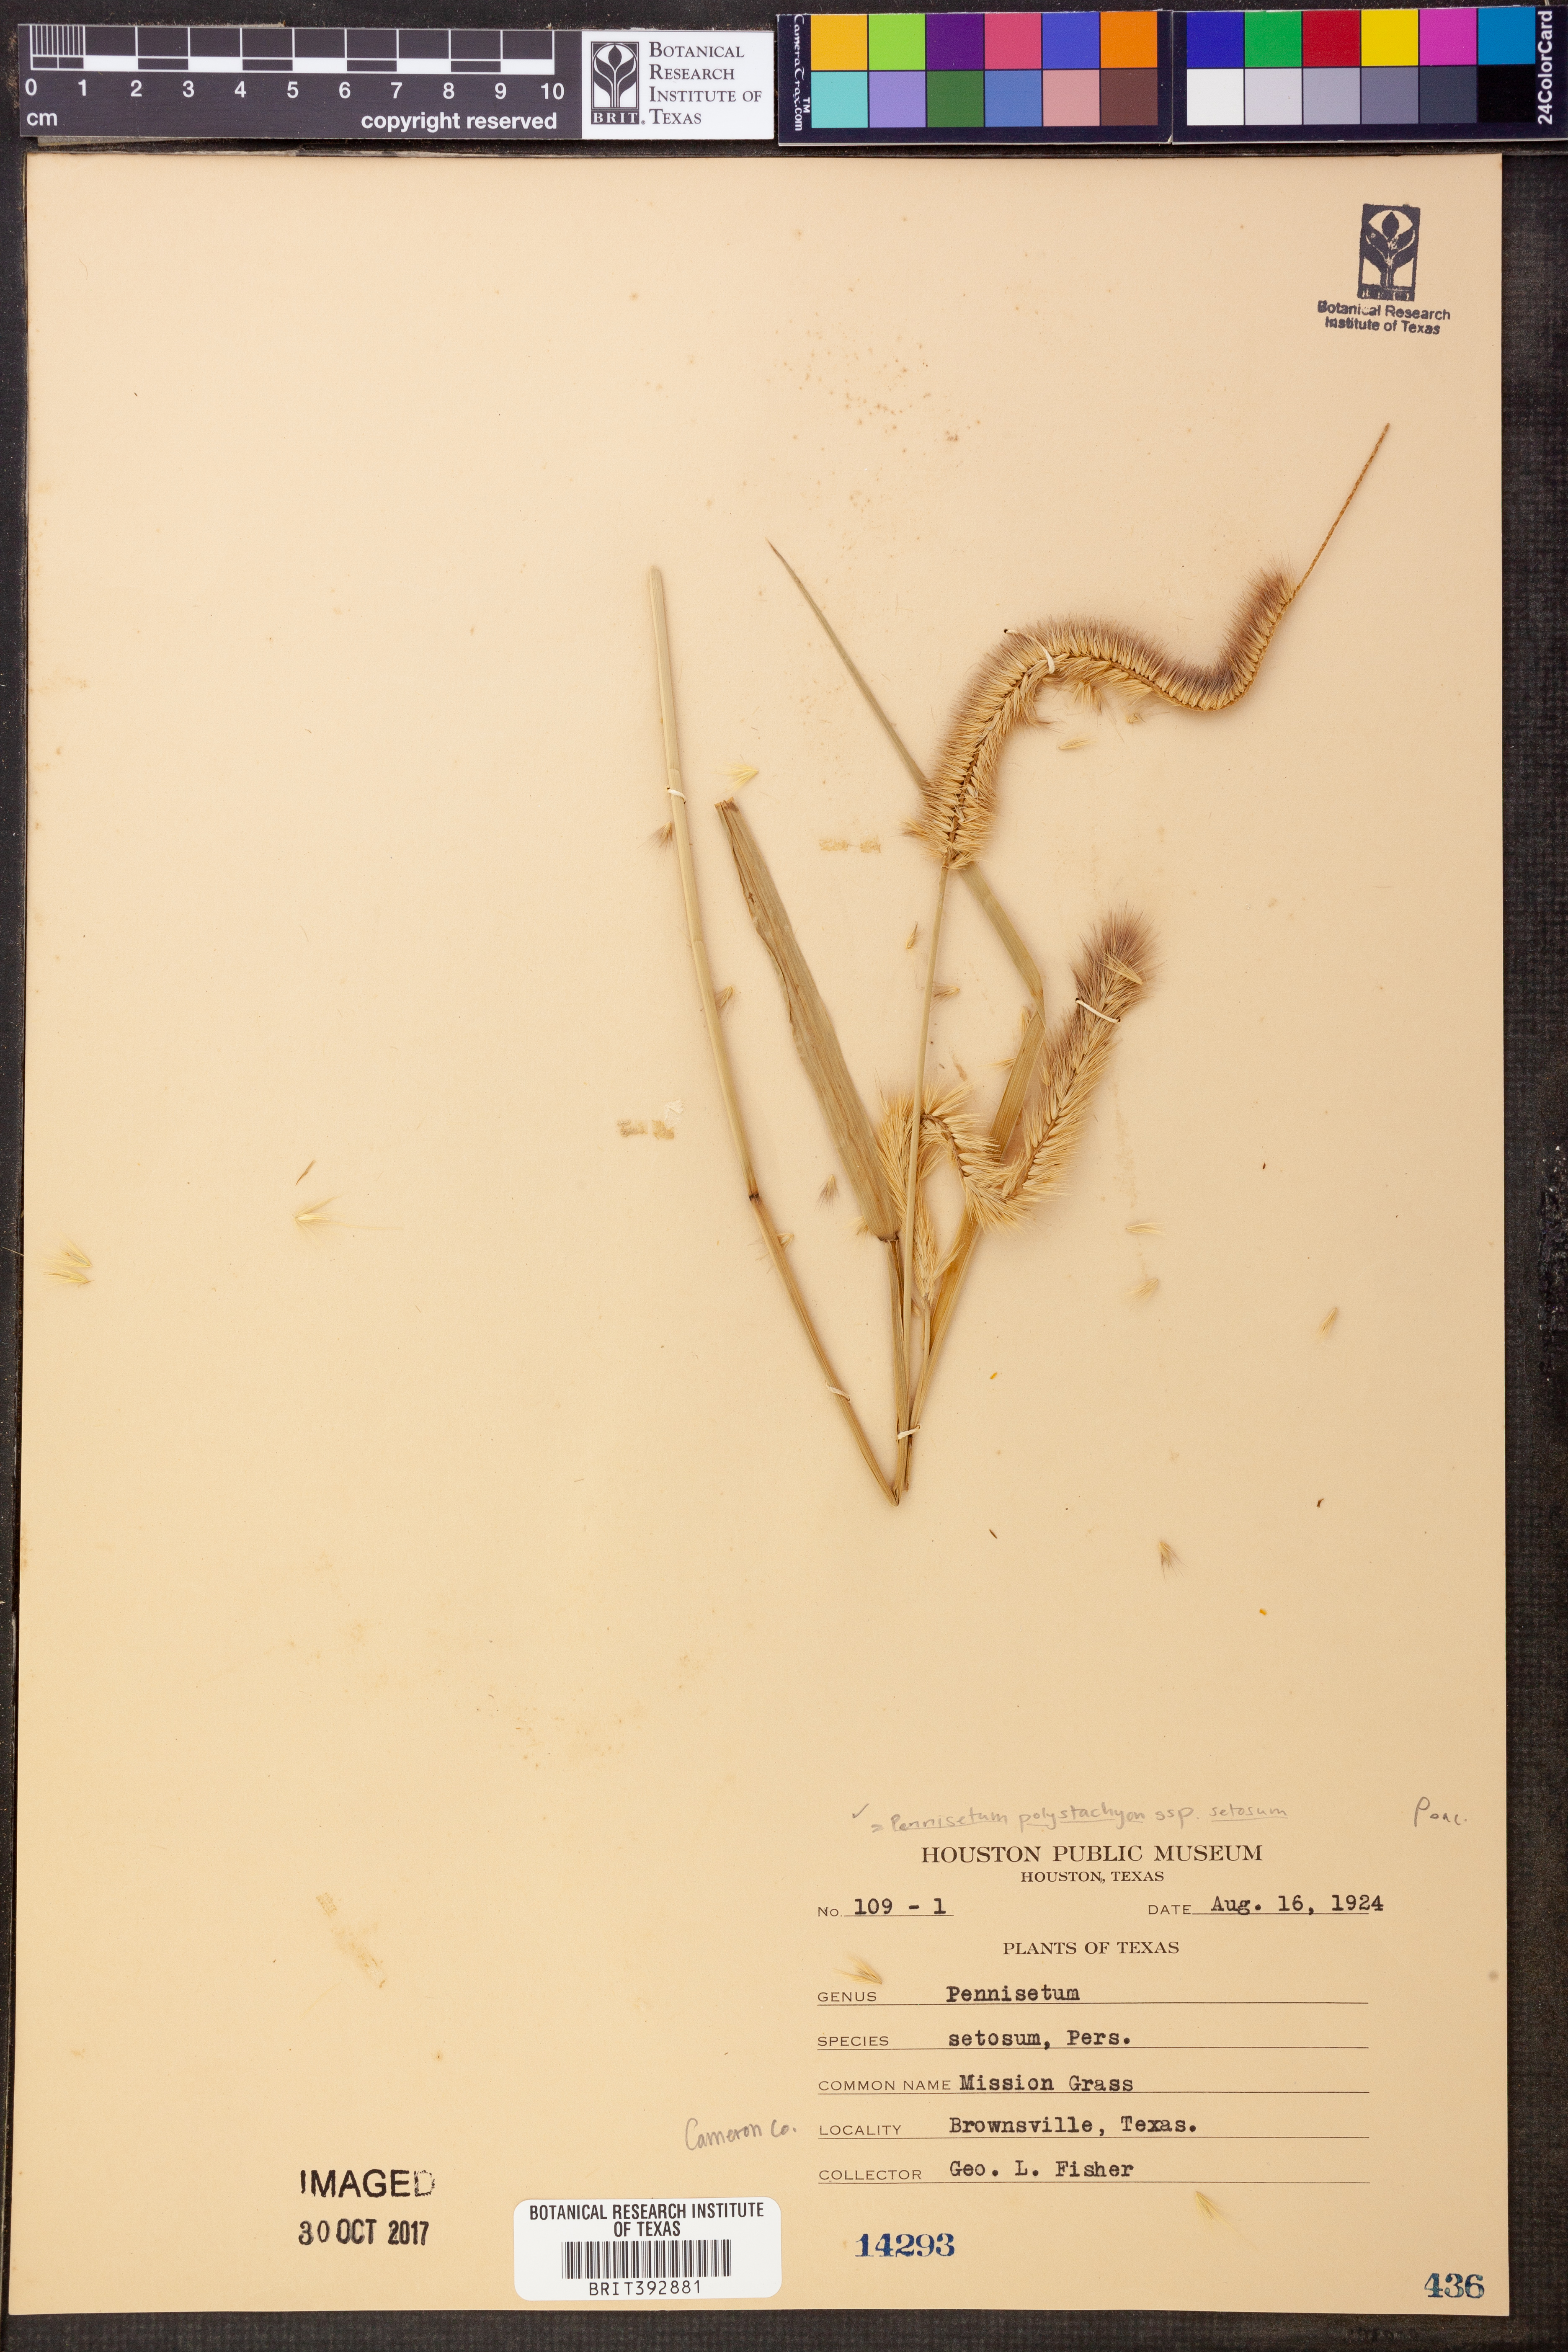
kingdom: Plantae
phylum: Tracheophyta
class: Liliopsida
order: Poales
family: Poaceae
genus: Cenchrus
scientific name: Cenchrus setosus
